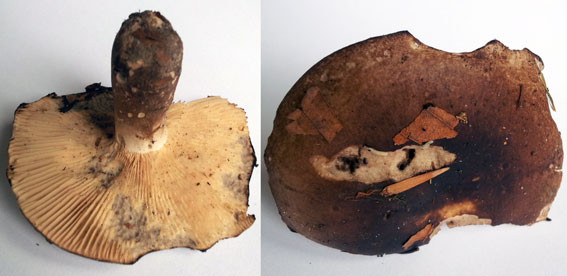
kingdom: Fungi
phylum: Basidiomycota
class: Agaricomycetes
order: Russulales
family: Russulaceae
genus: Russula
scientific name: Russula acrifolia
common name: skarpbladet skørhat
